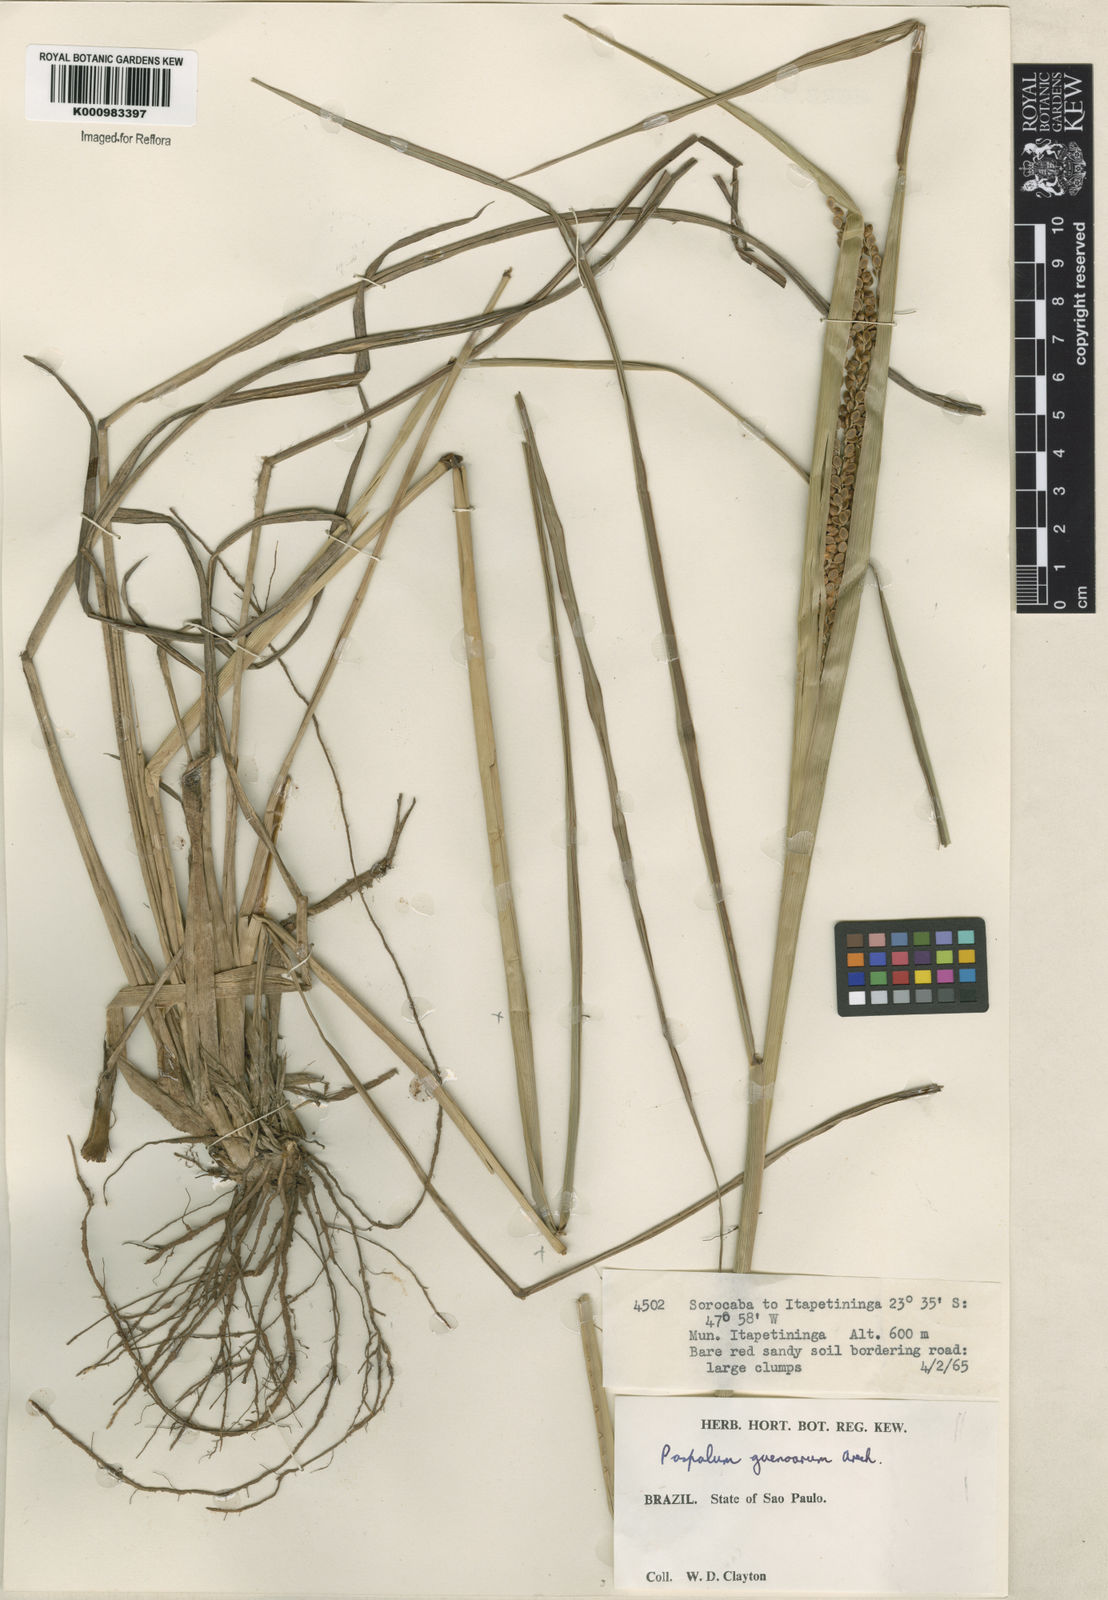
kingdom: Plantae
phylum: Tracheophyta
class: Liliopsida
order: Poales
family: Poaceae
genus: Paspalum
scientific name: Paspalum guenoarum
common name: Wintergreen paspalum
